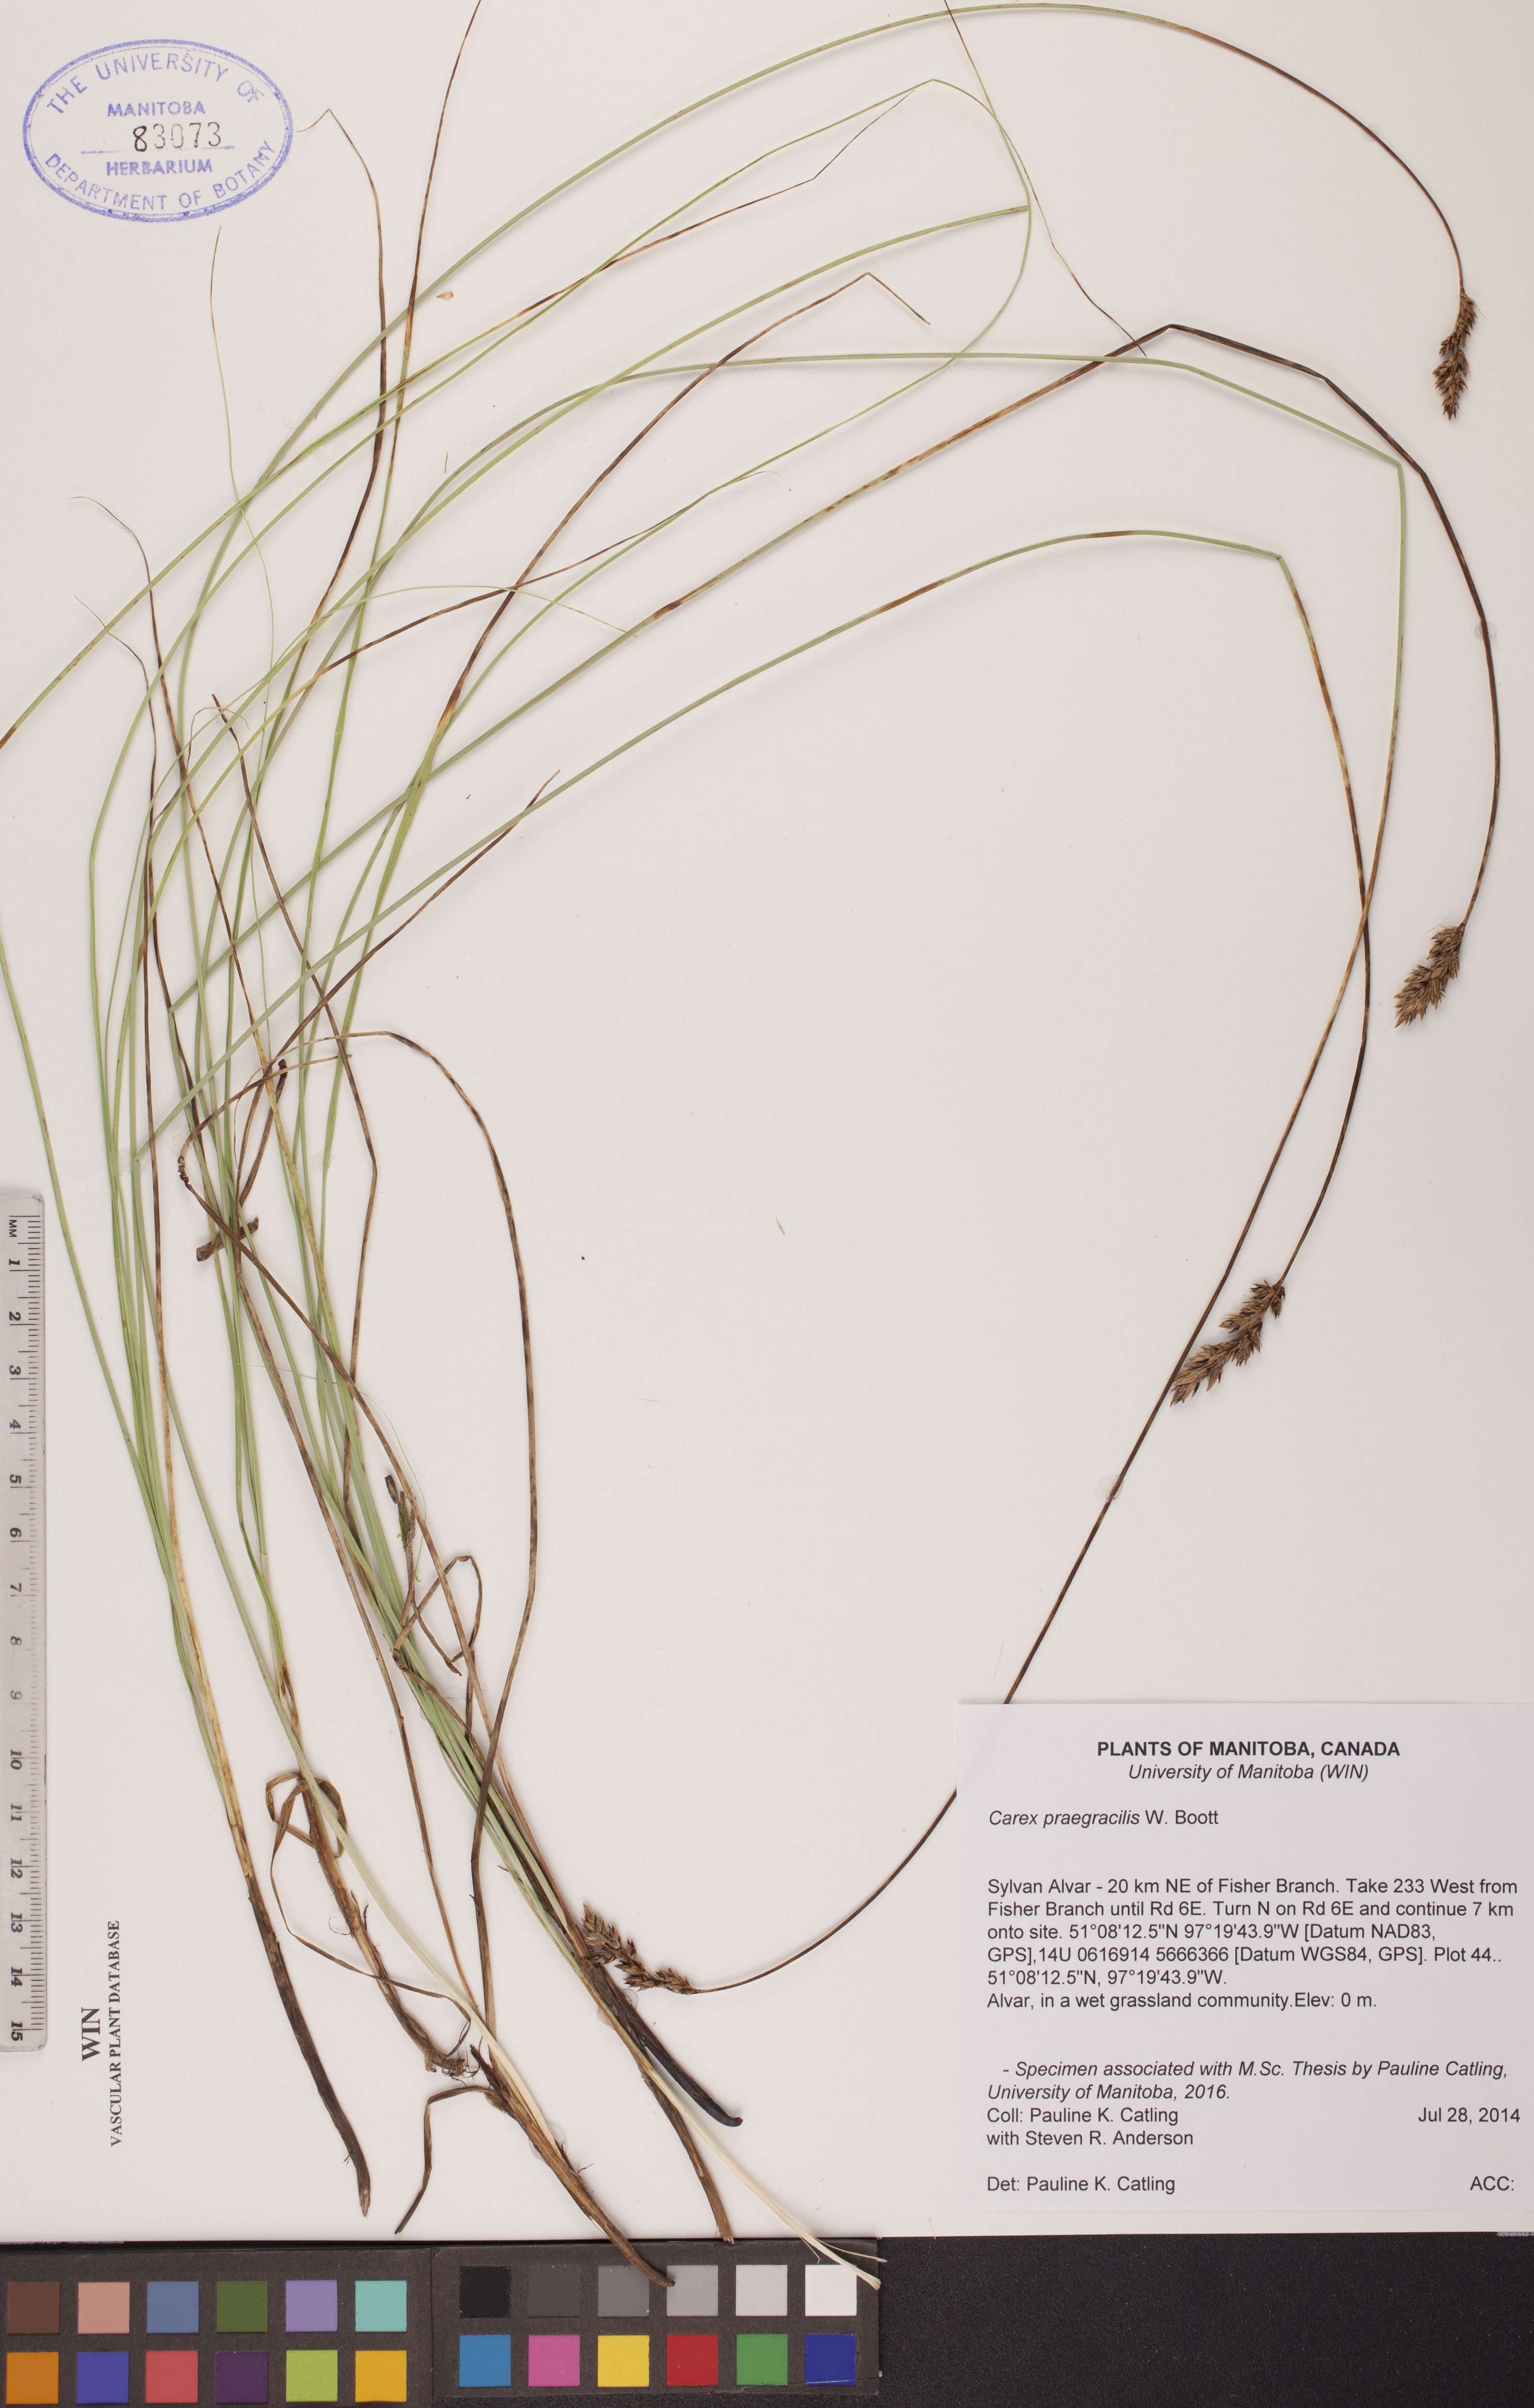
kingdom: Plantae
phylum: Tracheophyta
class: Liliopsida
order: Poales
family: Cyperaceae
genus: Carex
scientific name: Carex praegracilis
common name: Black creeper sedge
